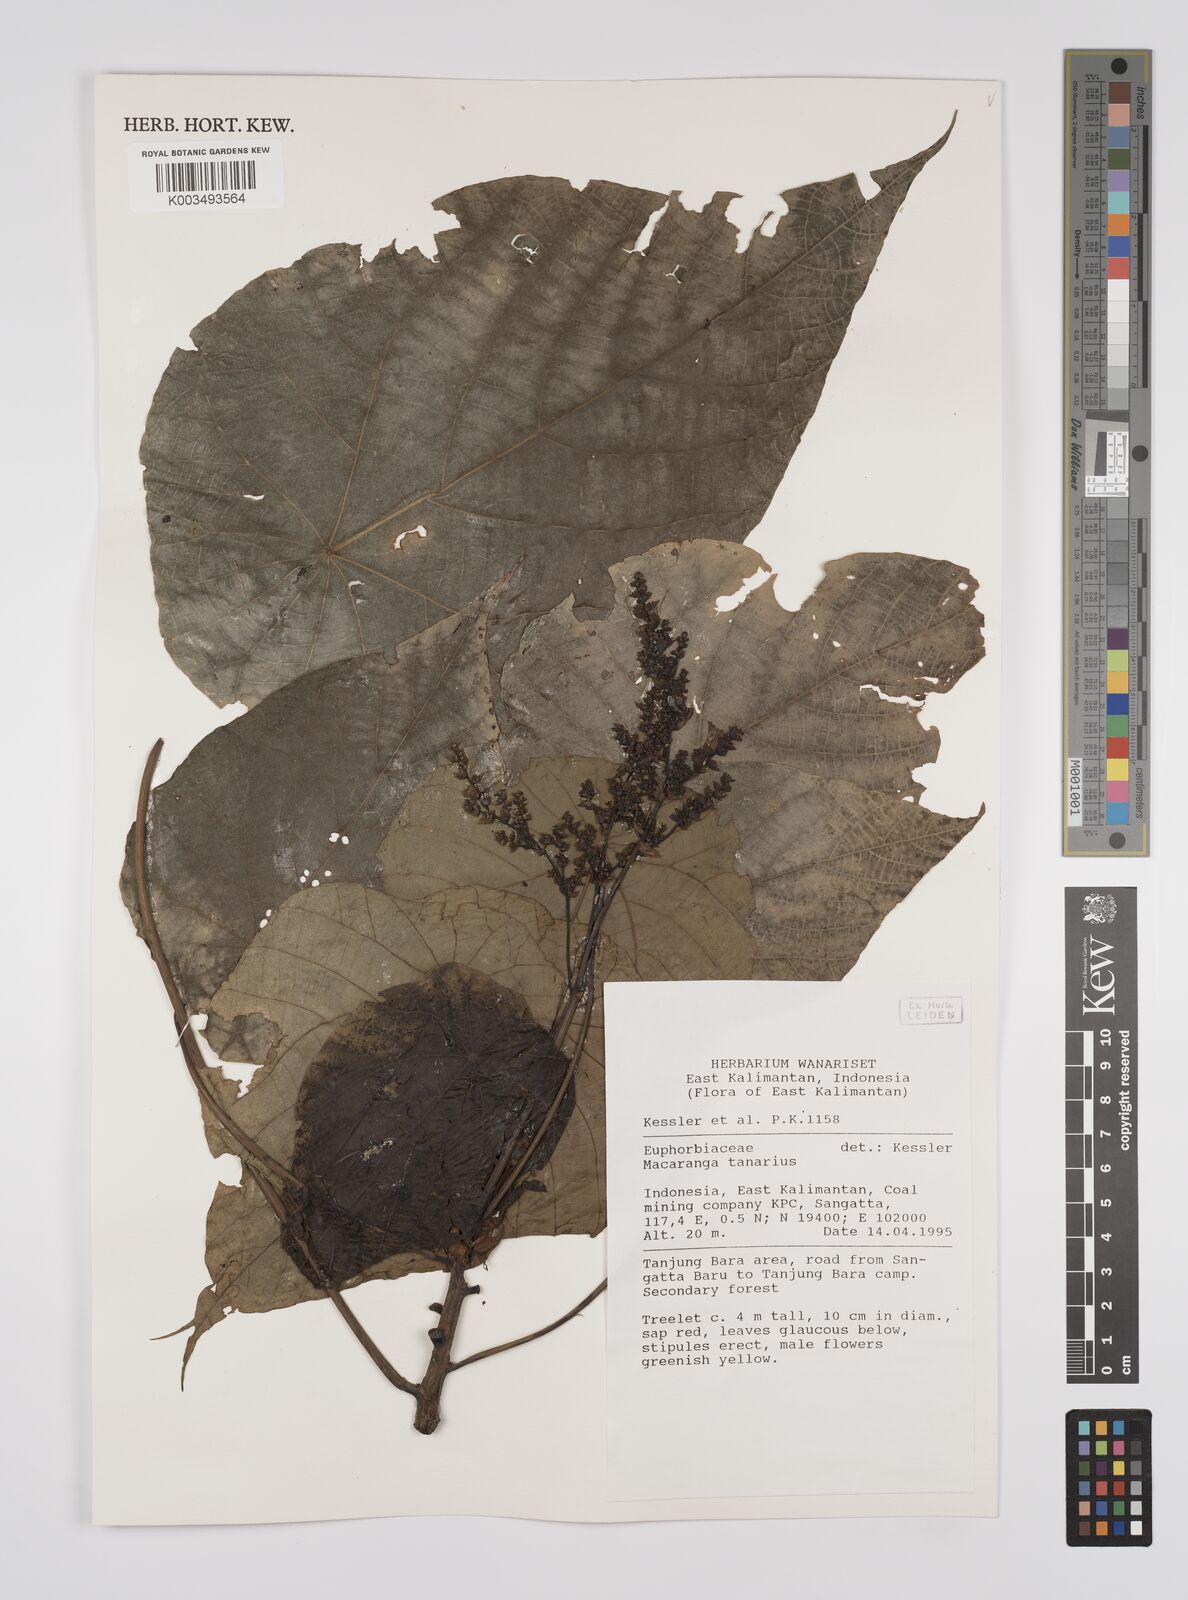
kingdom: Plantae
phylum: Tracheophyta
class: Magnoliopsida
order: Malpighiales
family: Euphorbiaceae
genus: Macaranga
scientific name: Macaranga tanarius
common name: Parasol leaf tree
